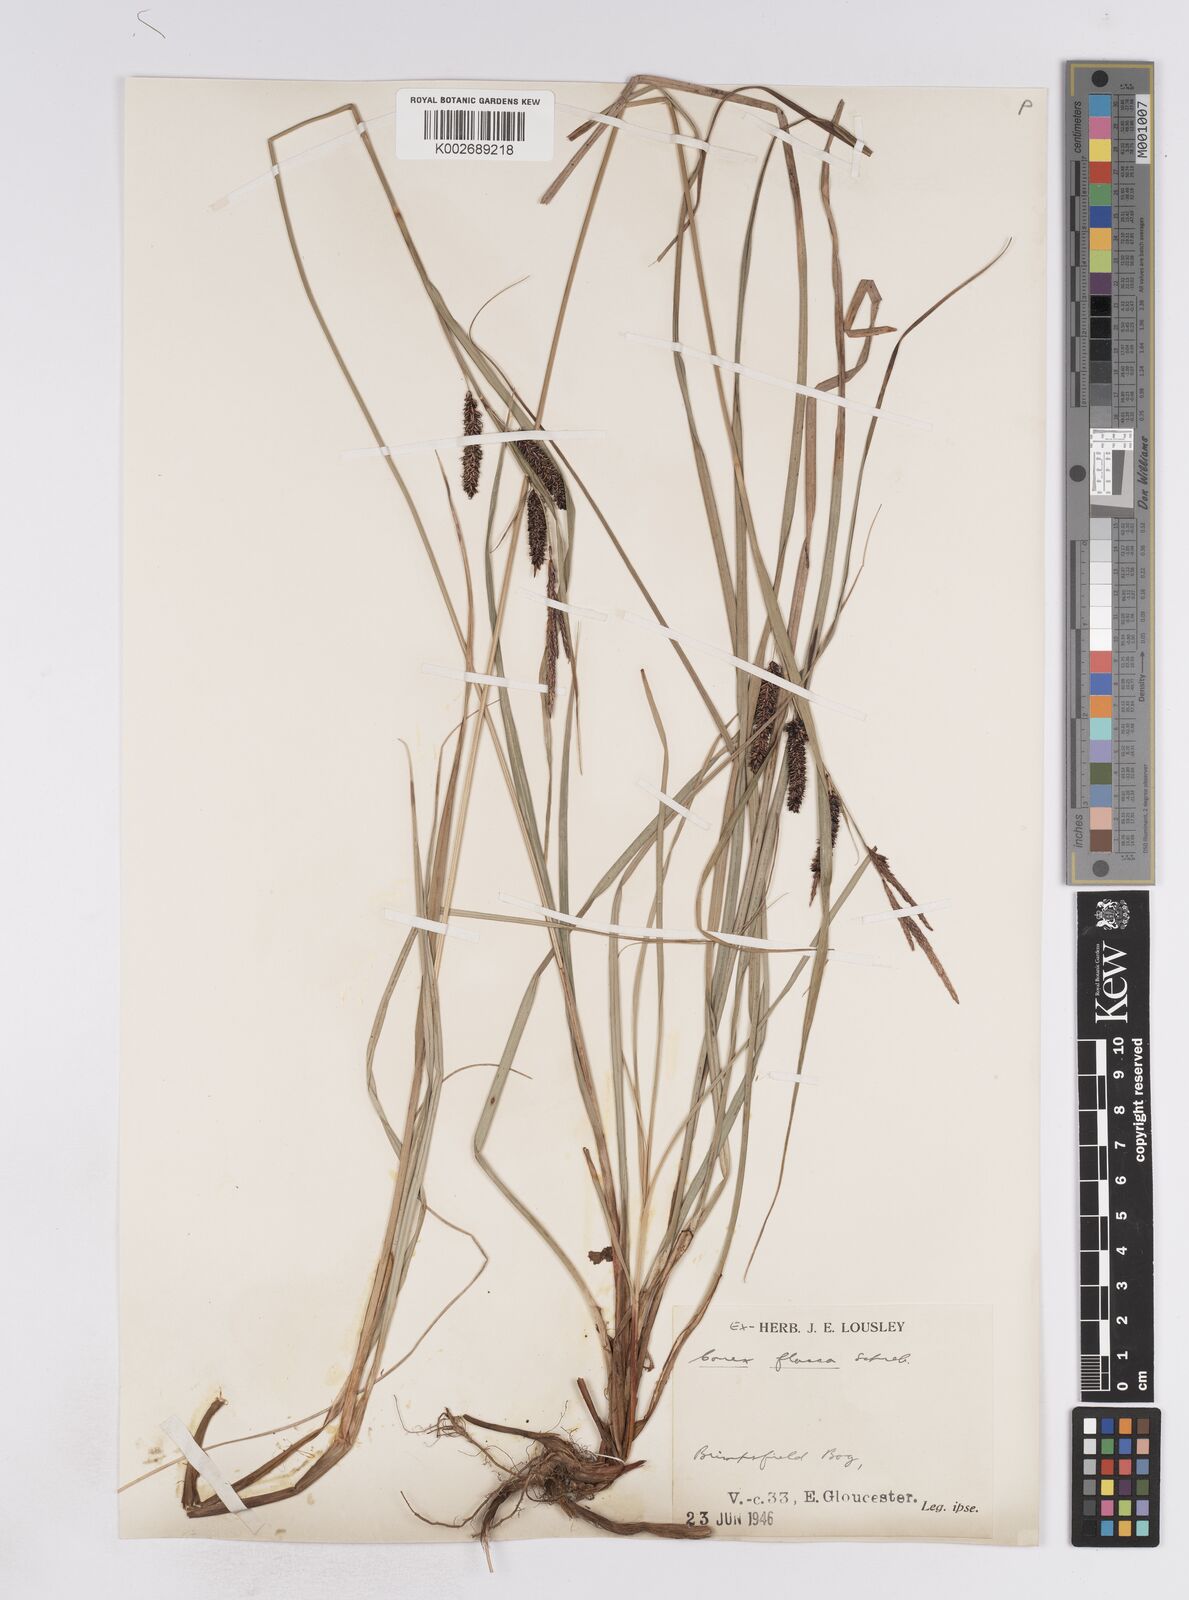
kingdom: Plantae
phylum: Tracheophyta
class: Liliopsida
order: Poales
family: Cyperaceae
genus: Carex
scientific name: Carex flacca
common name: Glaucous sedge
